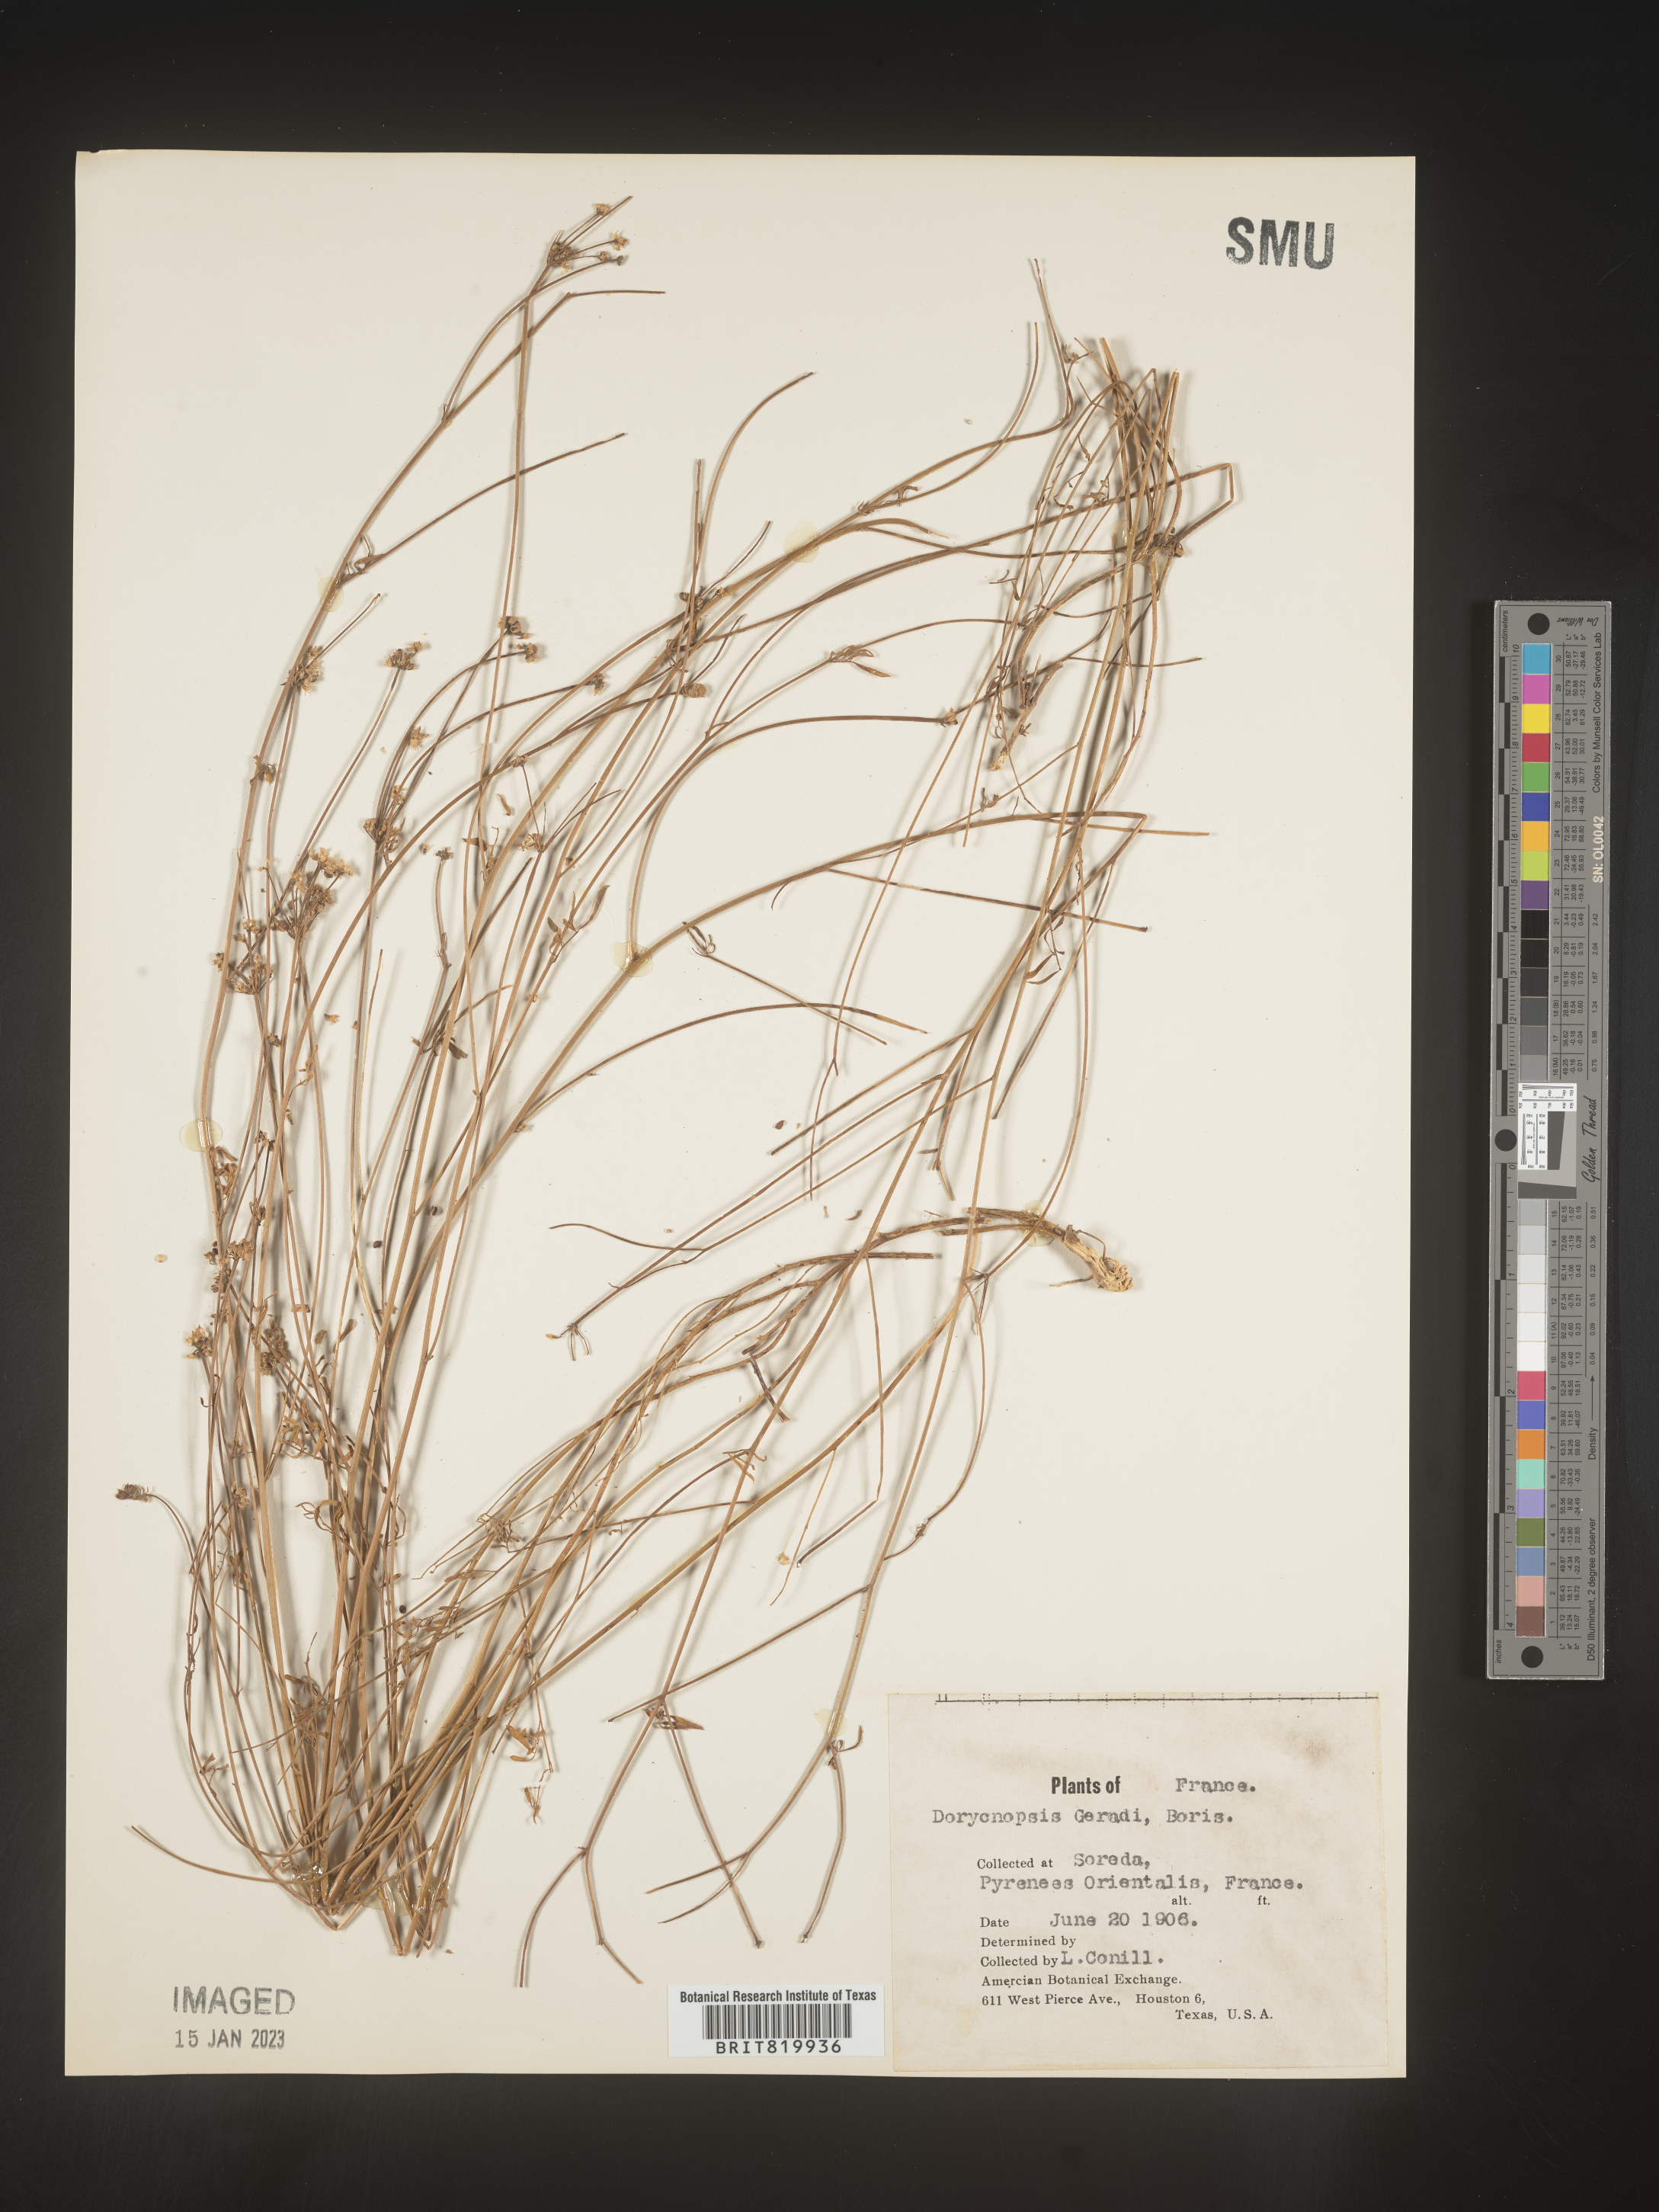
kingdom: Plantae
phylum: Tracheophyta
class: Magnoliopsida
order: Fabales
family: Fabaceae
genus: Dorycnopsis
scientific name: Dorycnopsis
